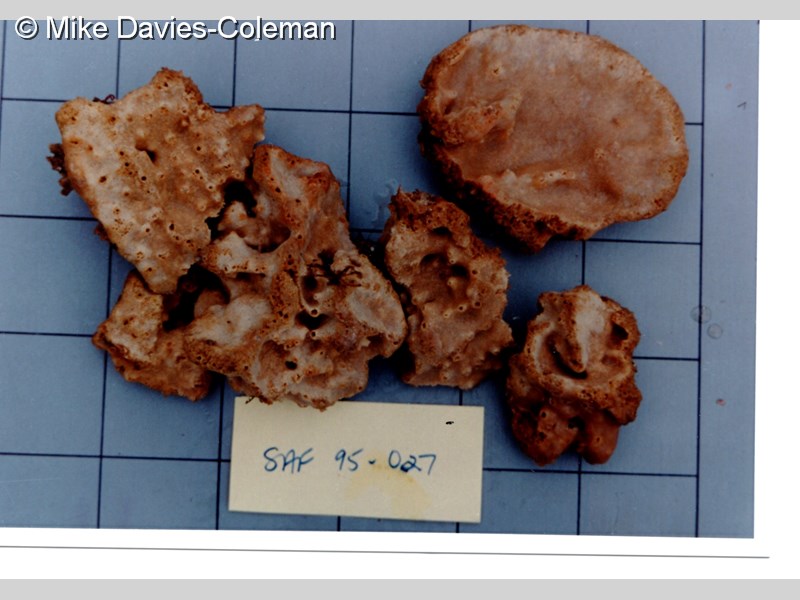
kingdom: Animalia
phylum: Porifera
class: Demospongiae
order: Haplosclerida
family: Petrosiidae
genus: Xestospongia
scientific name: Xestospongia
